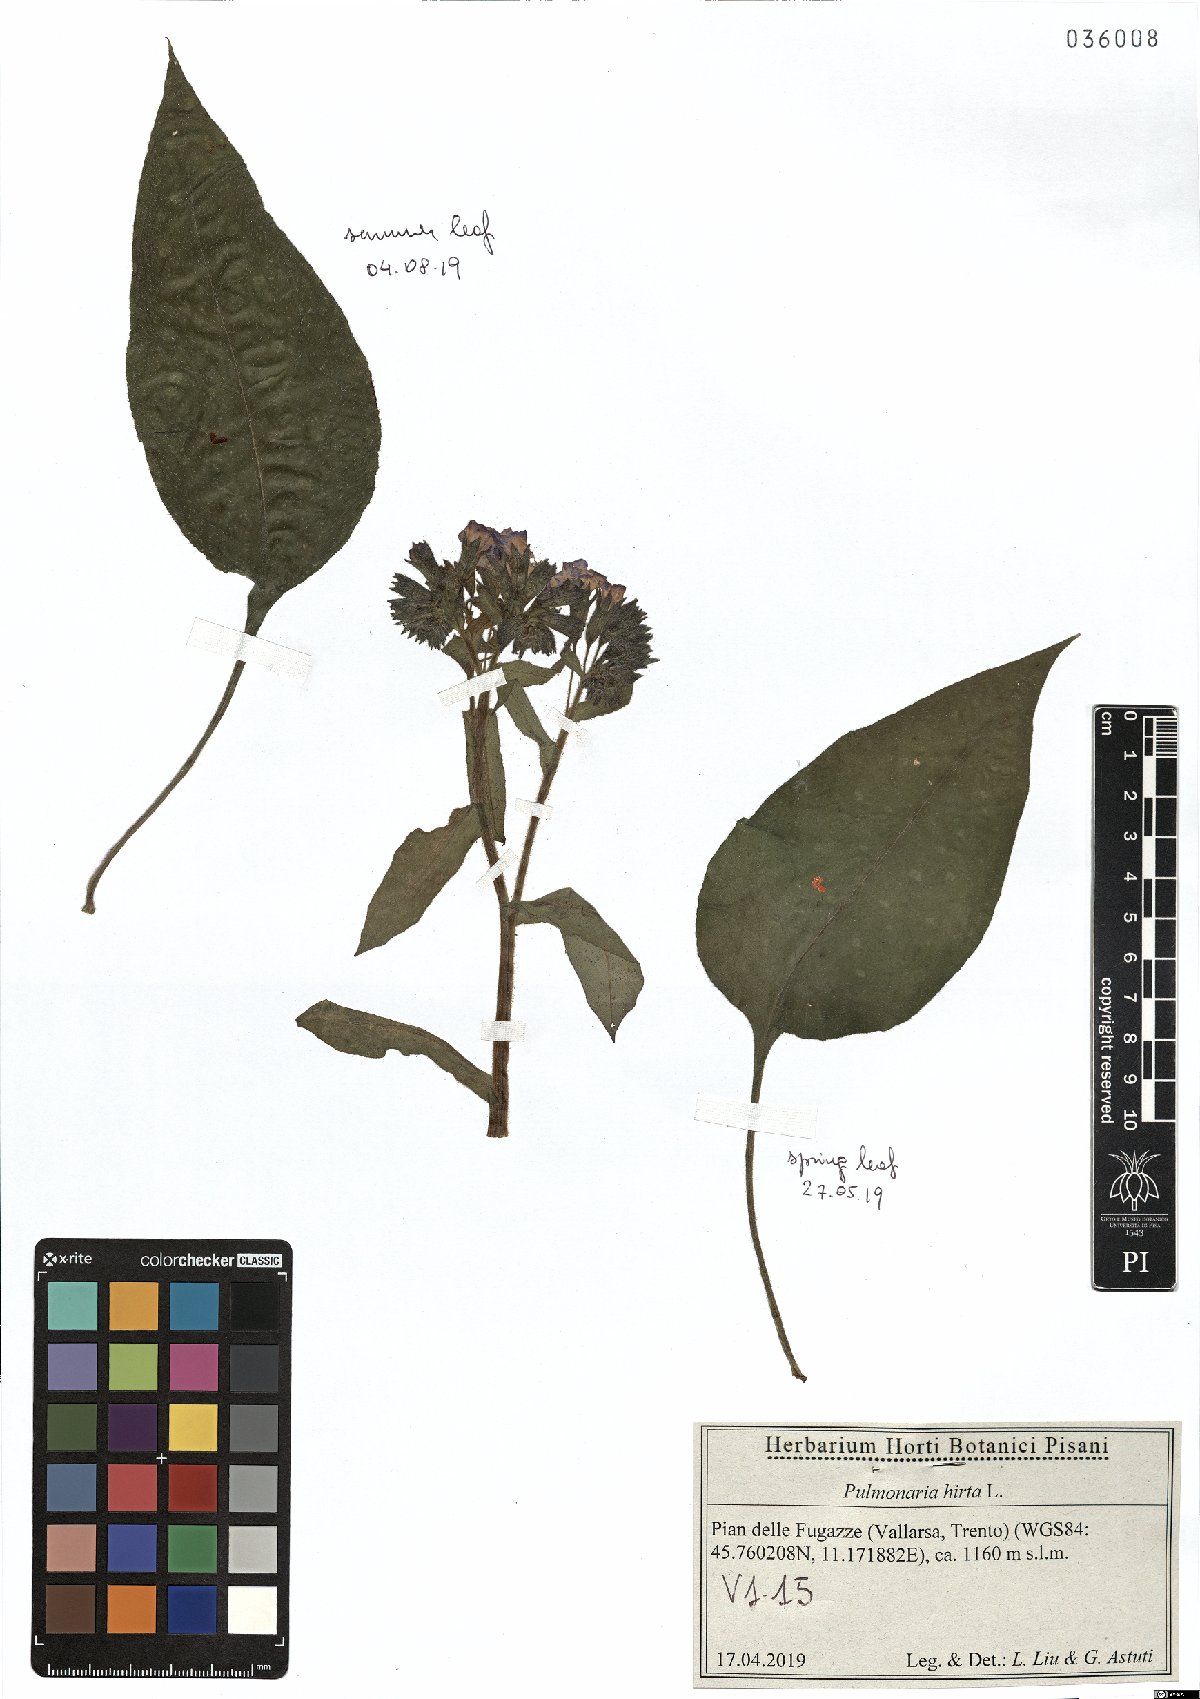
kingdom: Plantae
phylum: Tracheophyta
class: Magnoliopsida
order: Boraginales
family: Boraginaceae
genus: Pulmonaria
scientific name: Pulmonaria hirta
